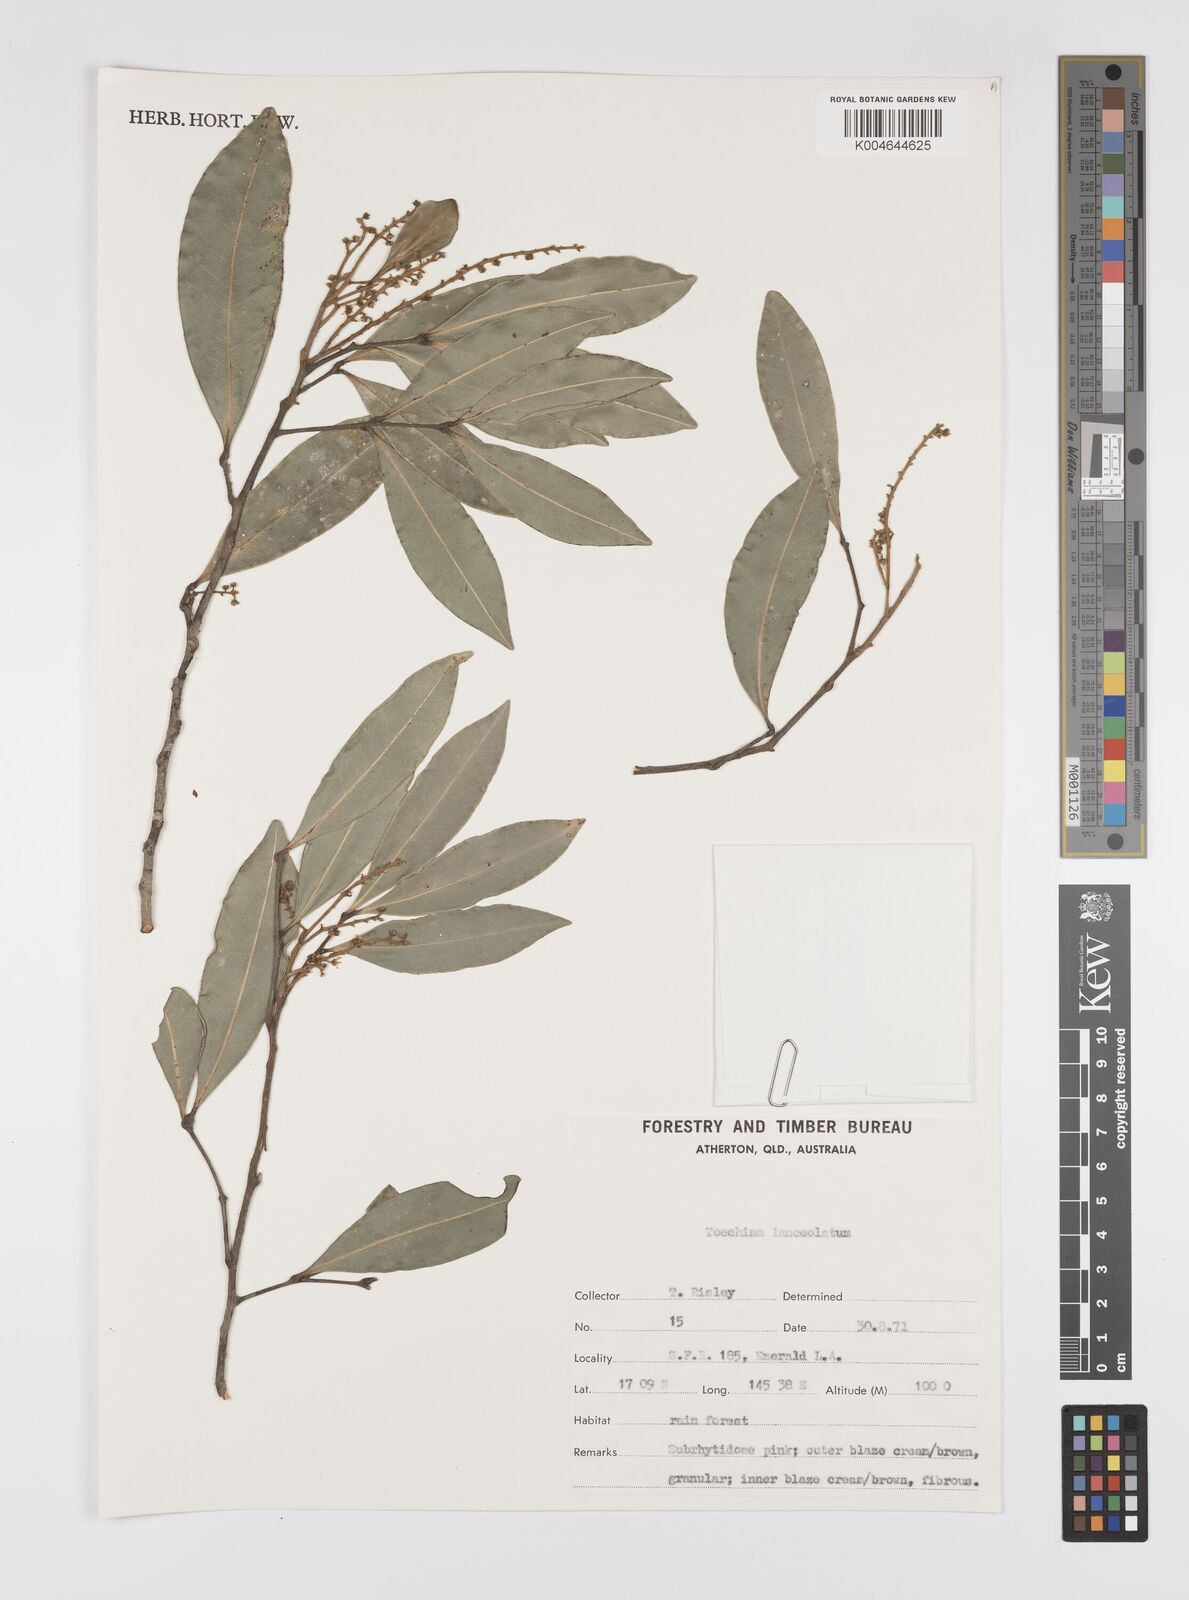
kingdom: Plantae
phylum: Tracheophyta
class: Magnoliopsida
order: Sapindales
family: Sapindaceae
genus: Sarcotoechia
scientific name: Sarcotoechia lanceolata
